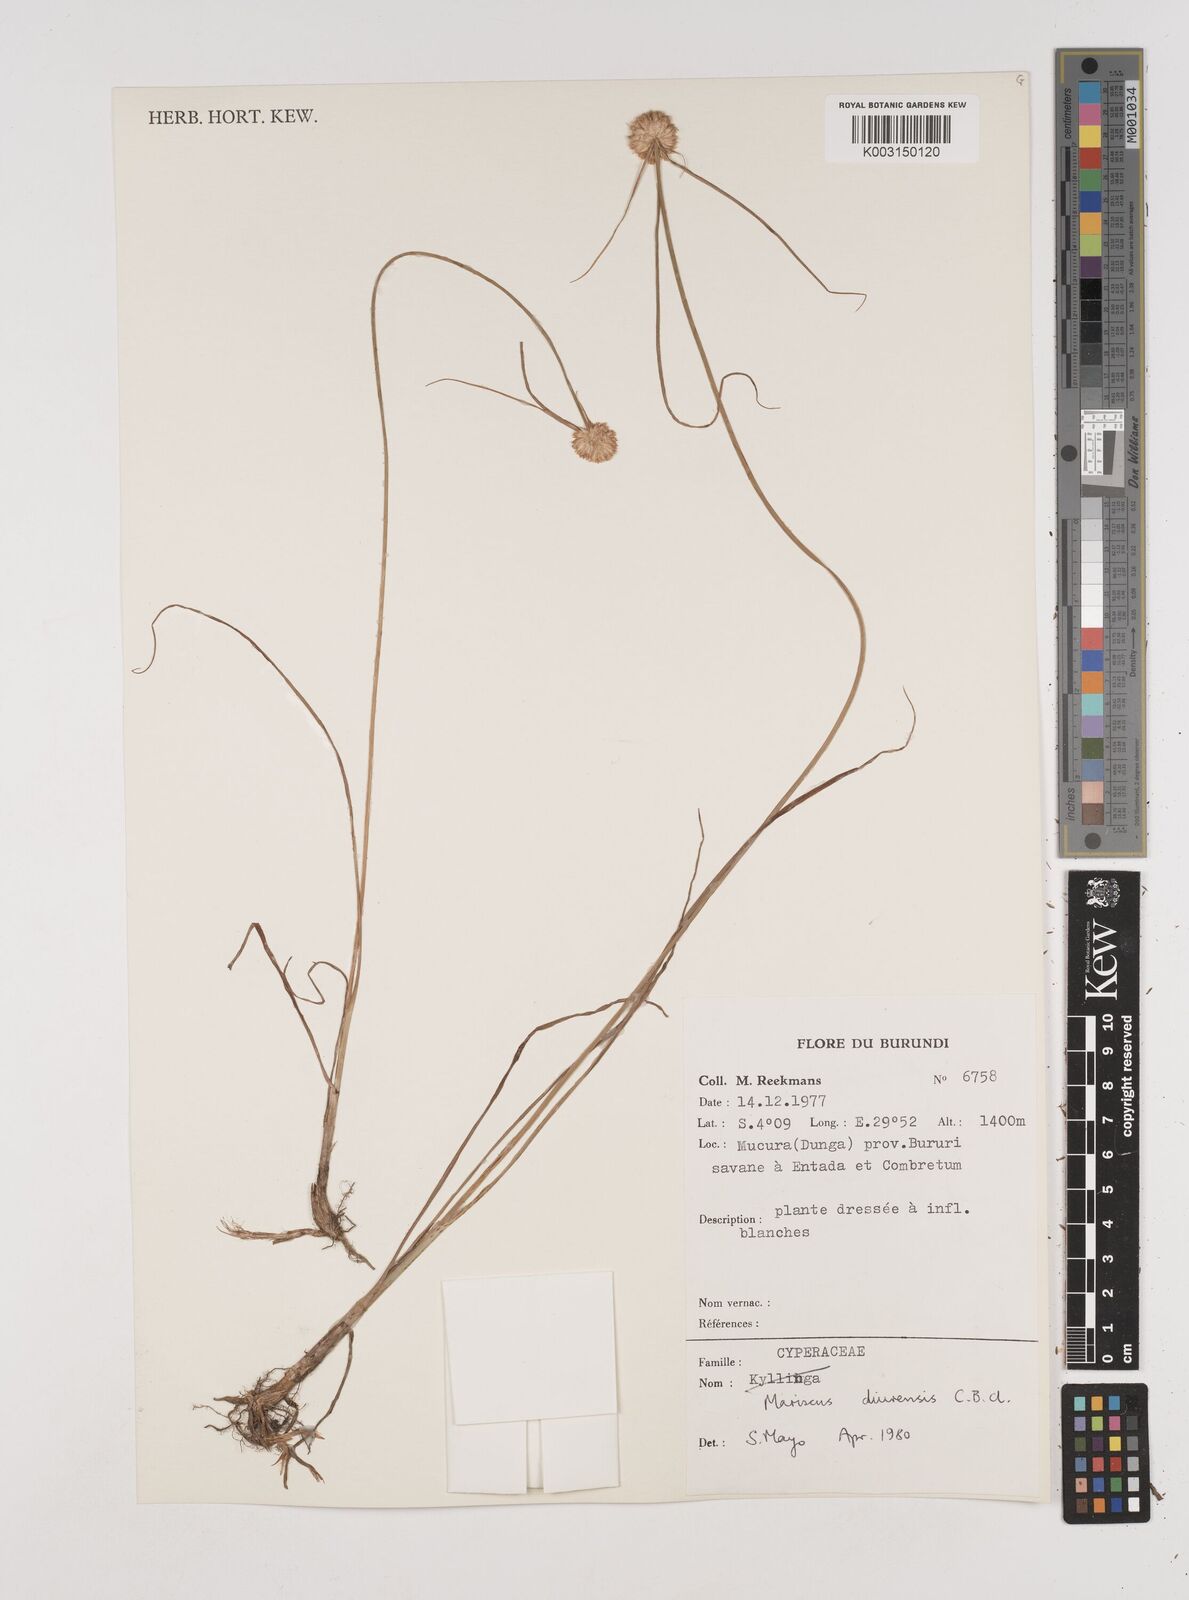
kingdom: Plantae
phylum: Tracheophyta
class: Liliopsida
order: Poales
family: Cyperaceae
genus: Cyperus
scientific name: Cyperus diurensis
